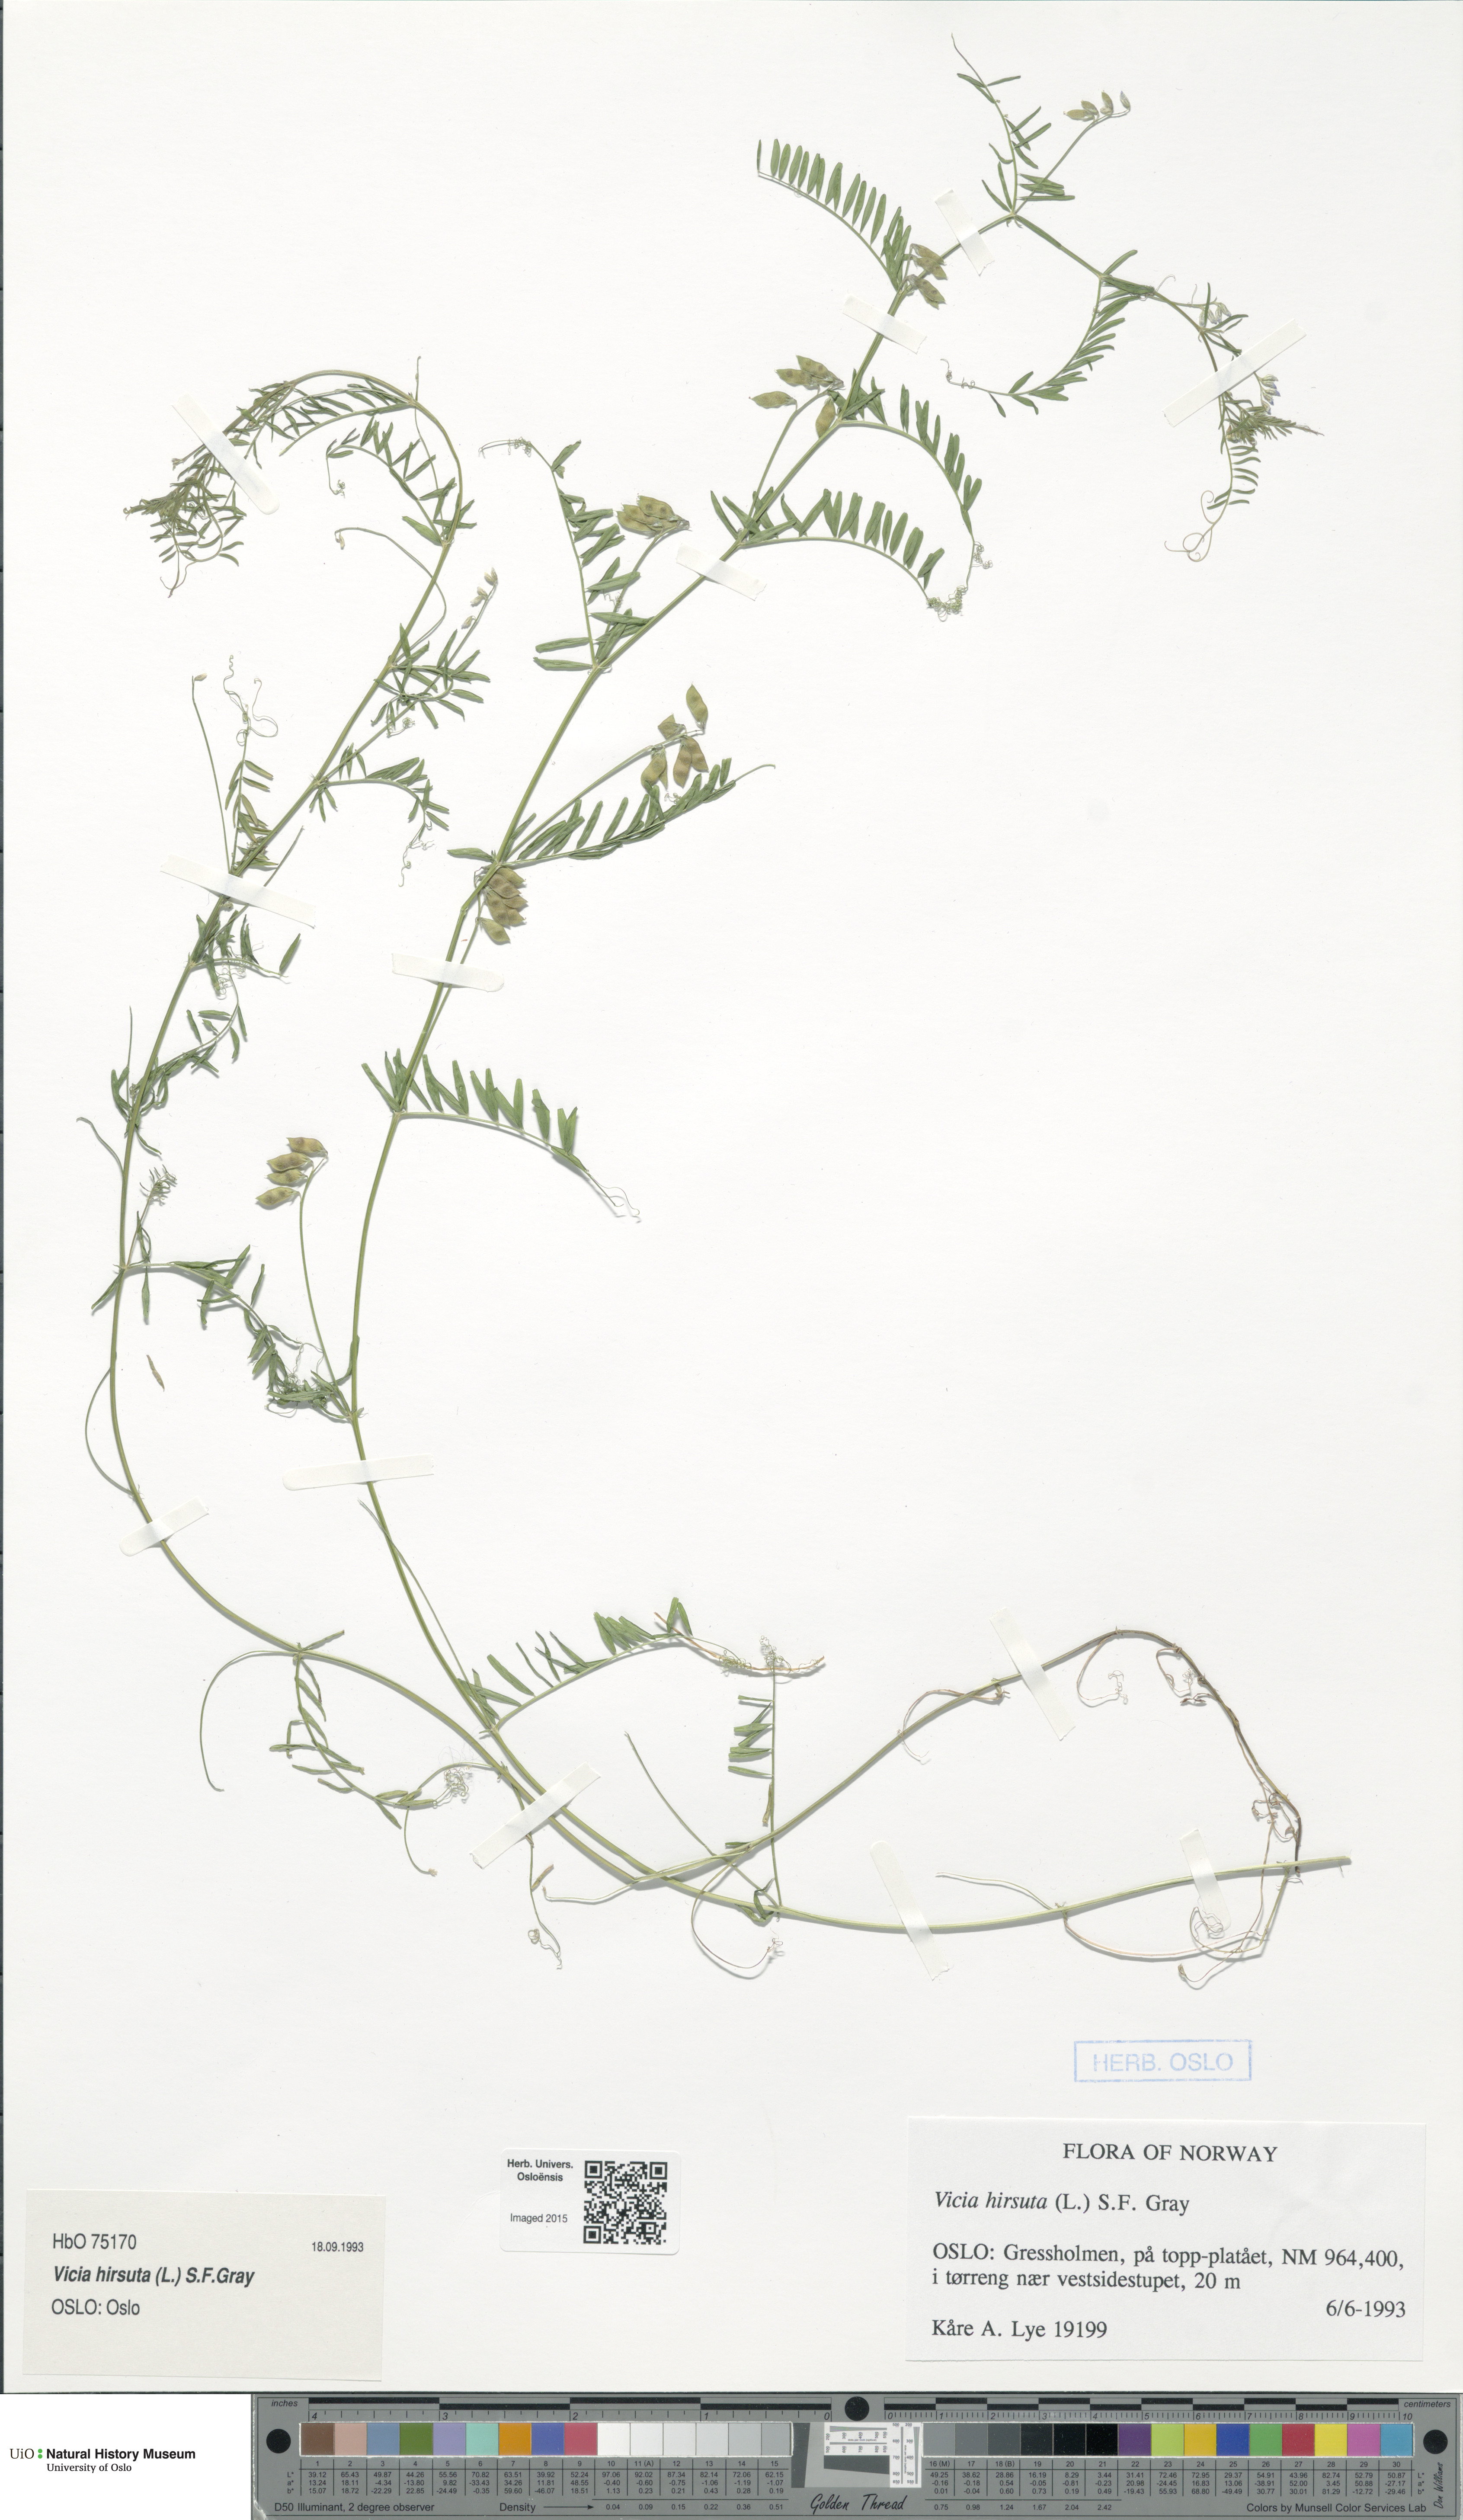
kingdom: Plantae
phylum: Tracheophyta
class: Magnoliopsida
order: Fabales
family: Fabaceae
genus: Vicia
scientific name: Vicia hirsuta
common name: Tiny vetch
